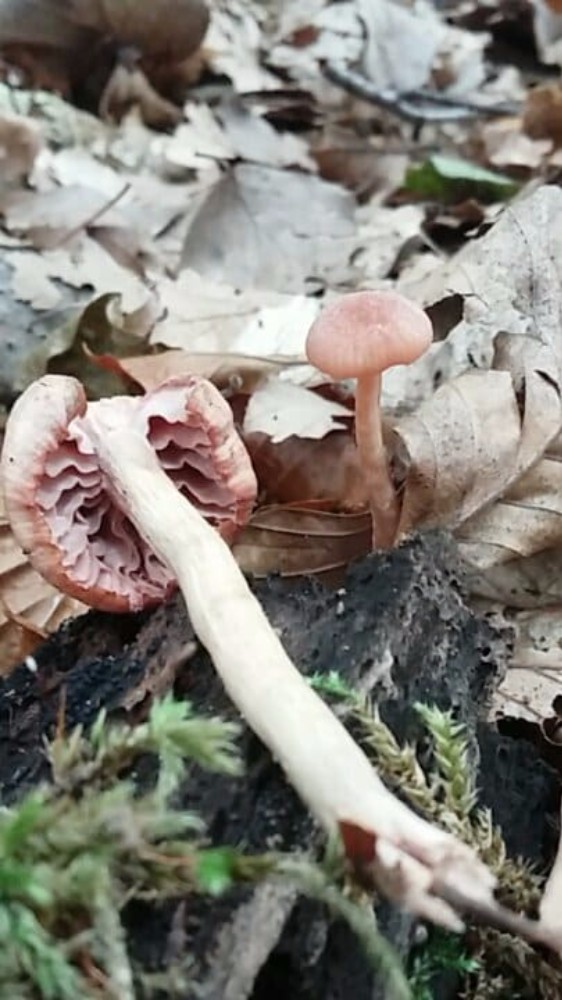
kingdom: Fungi
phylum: Basidiomycota
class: Agaricomycetes
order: Agaricales
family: Hydnangiaceae
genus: Laccaria
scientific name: Laccaria laccata
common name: rød ametysthat
